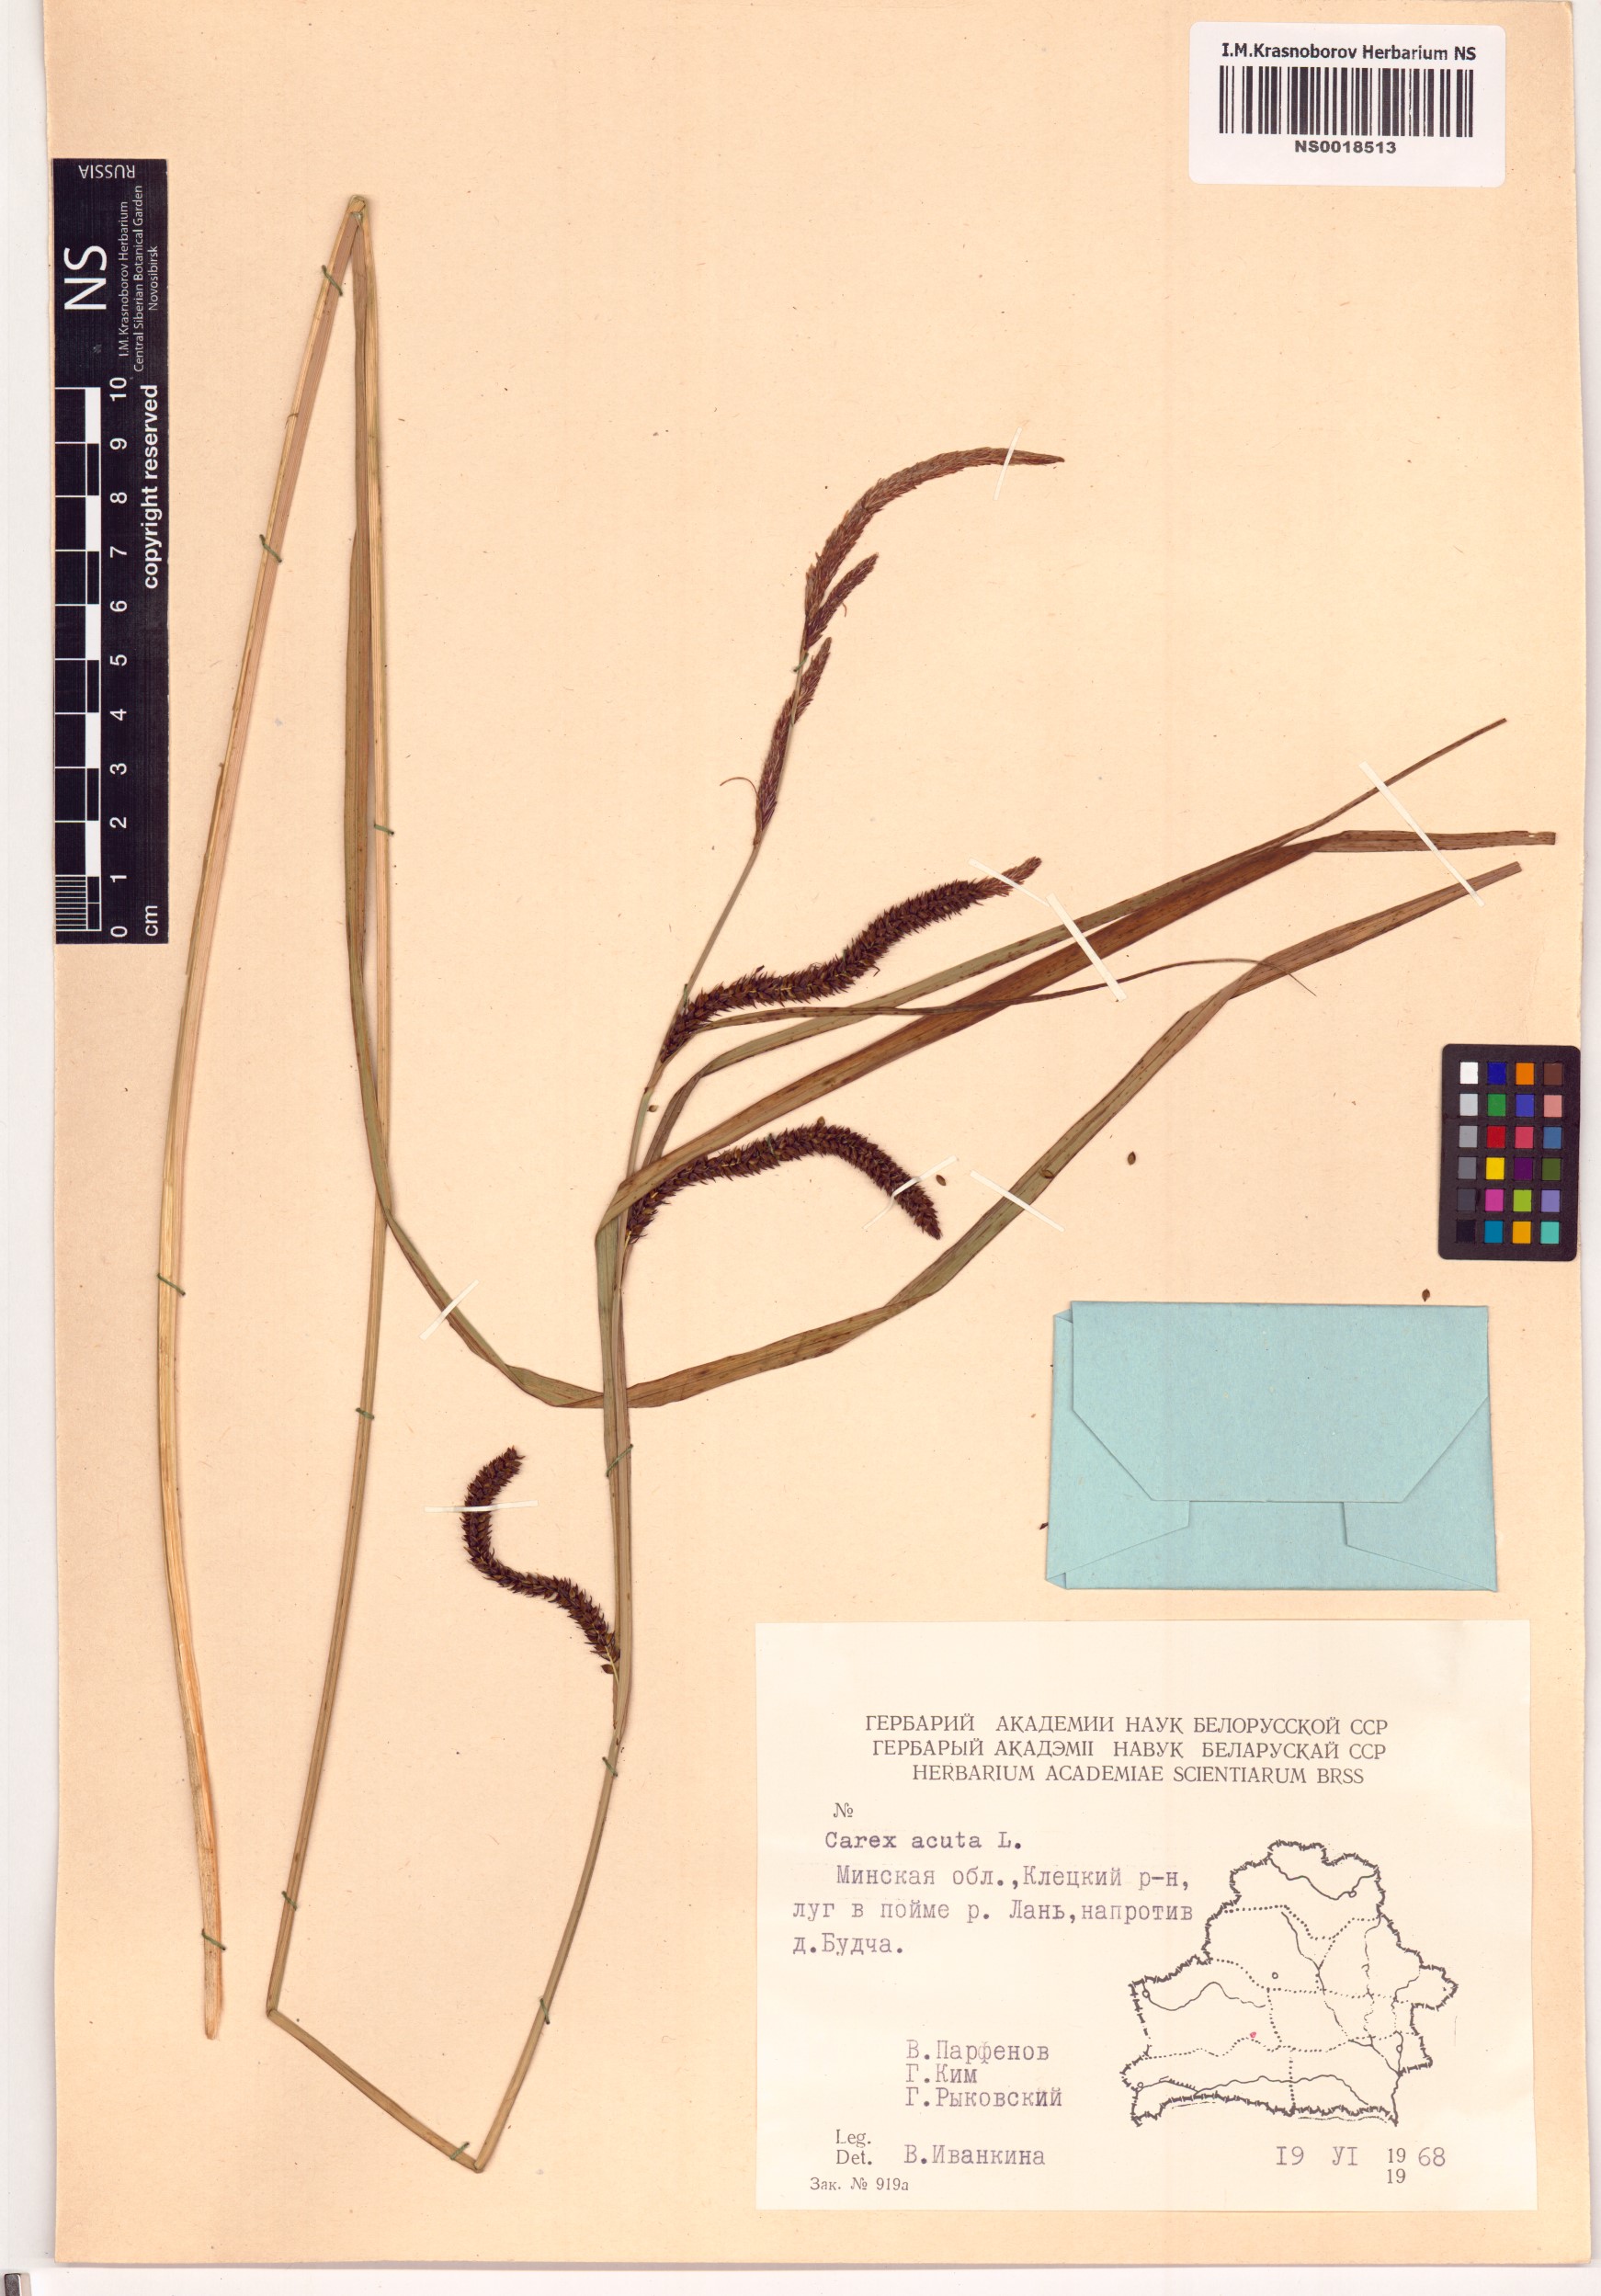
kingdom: Plantae
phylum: Tracheophyta
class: Liliopsida
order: Poales
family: Cyperaceae
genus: Carex
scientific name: Carex acuta
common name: Slender tufted-sedge
